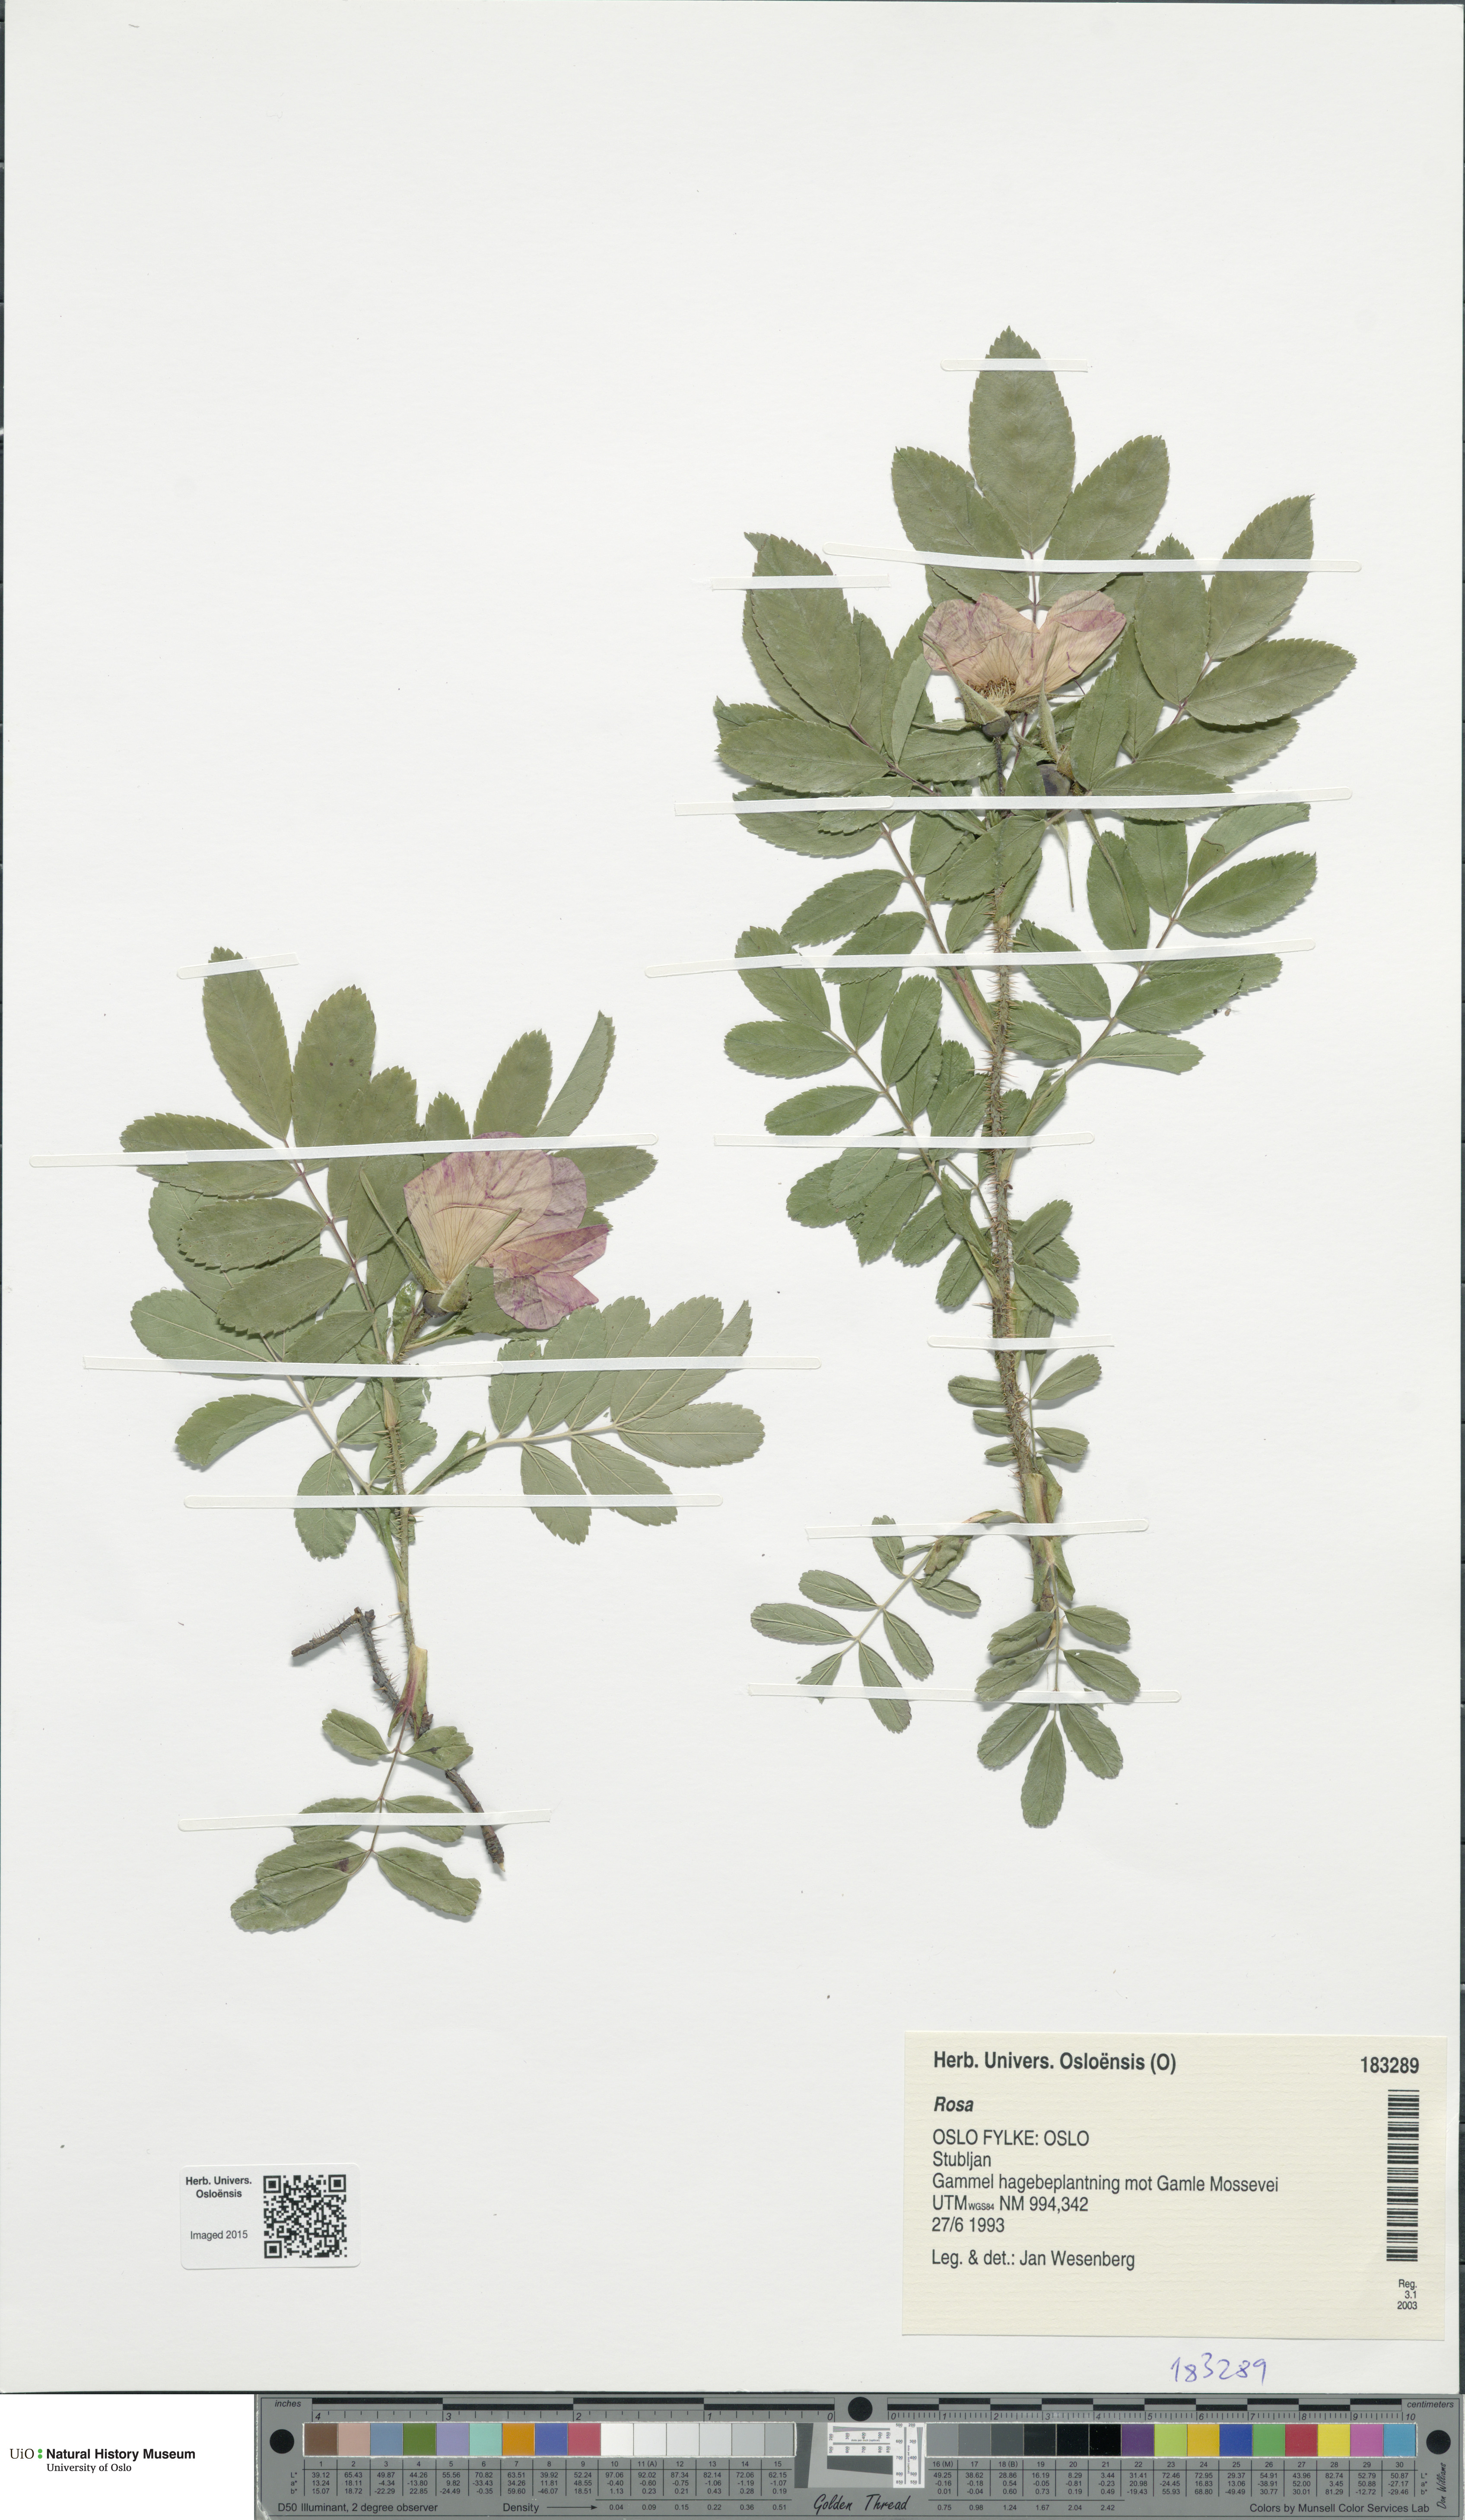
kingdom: Plantae
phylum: Tracheophyta
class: Magnoliopsida
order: Rosales
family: Rosaceae
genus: Rosa
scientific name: Rosa
